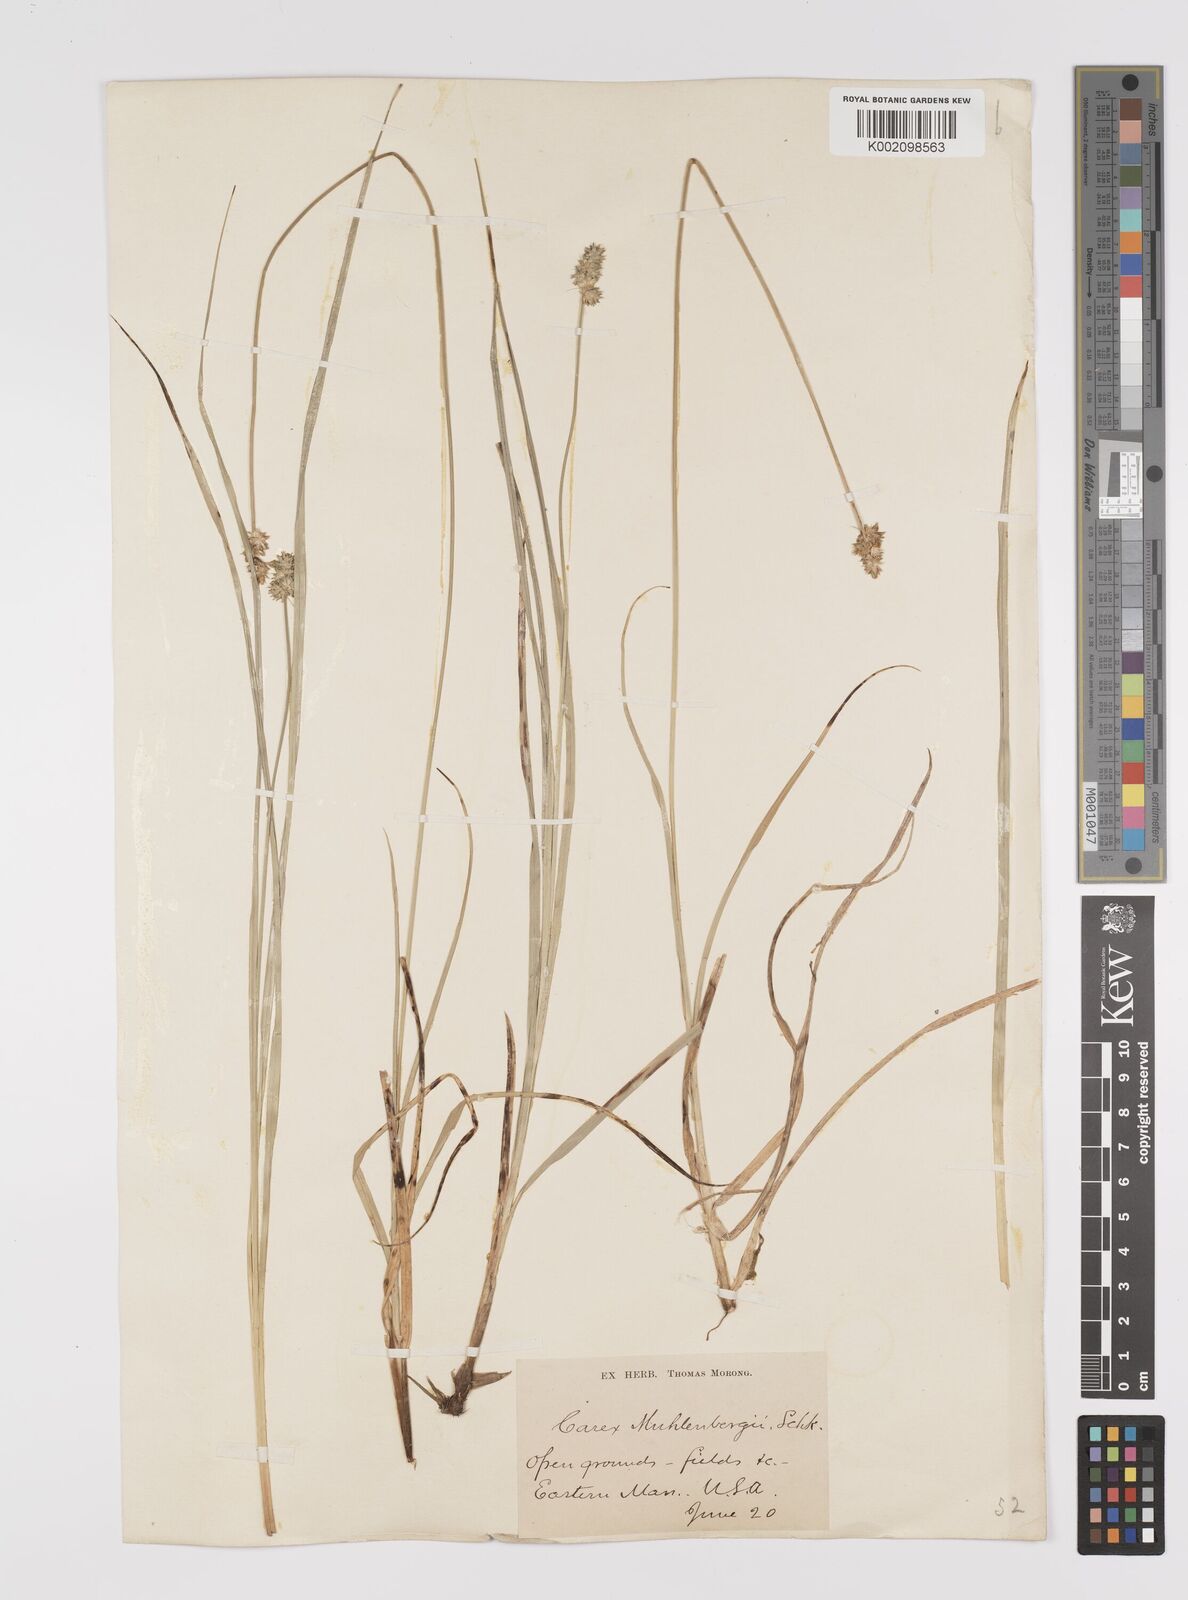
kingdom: Plantae
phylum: Tracheophyta
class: Liliopsida
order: Poales
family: Cyperaceae
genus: Carex
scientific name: Carex vulpinoidea
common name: American fox-sedge
